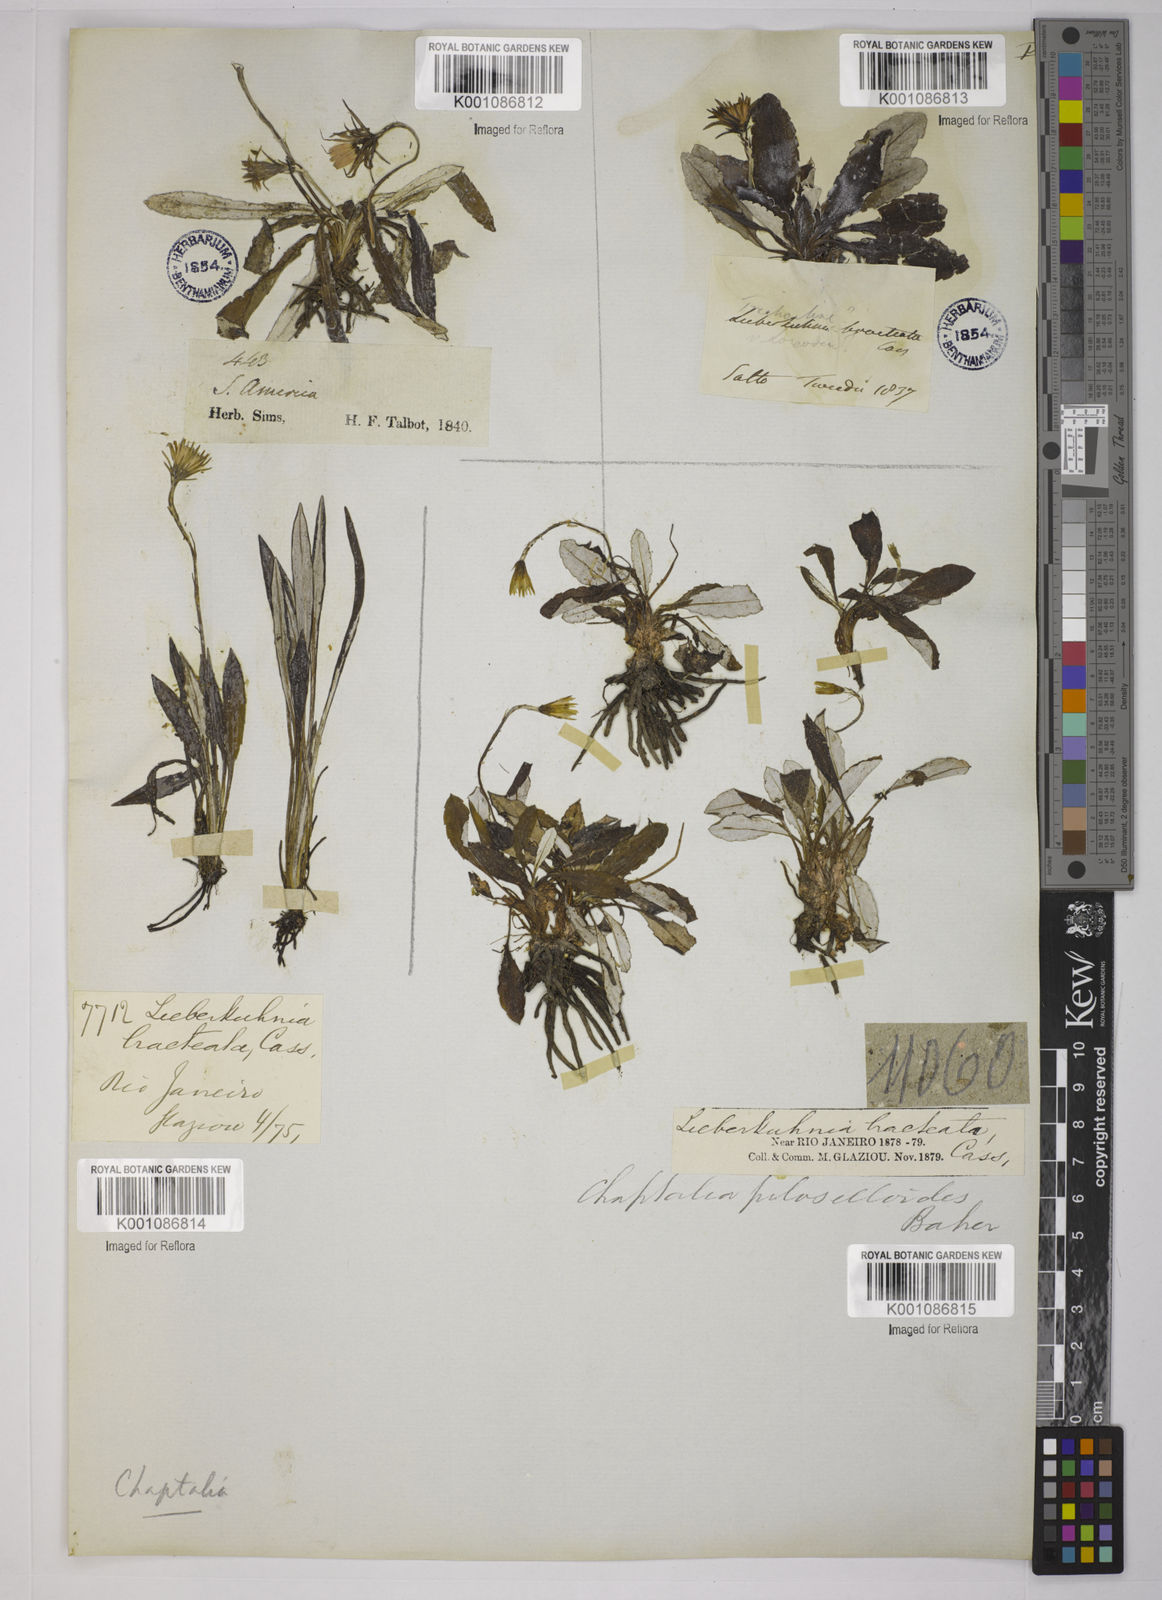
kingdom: Plantae
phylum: Tracheophyta
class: Magnoliopsida
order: Asterales
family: Asteraceae
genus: Chaptalia
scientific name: Chaptalia piloselloides
